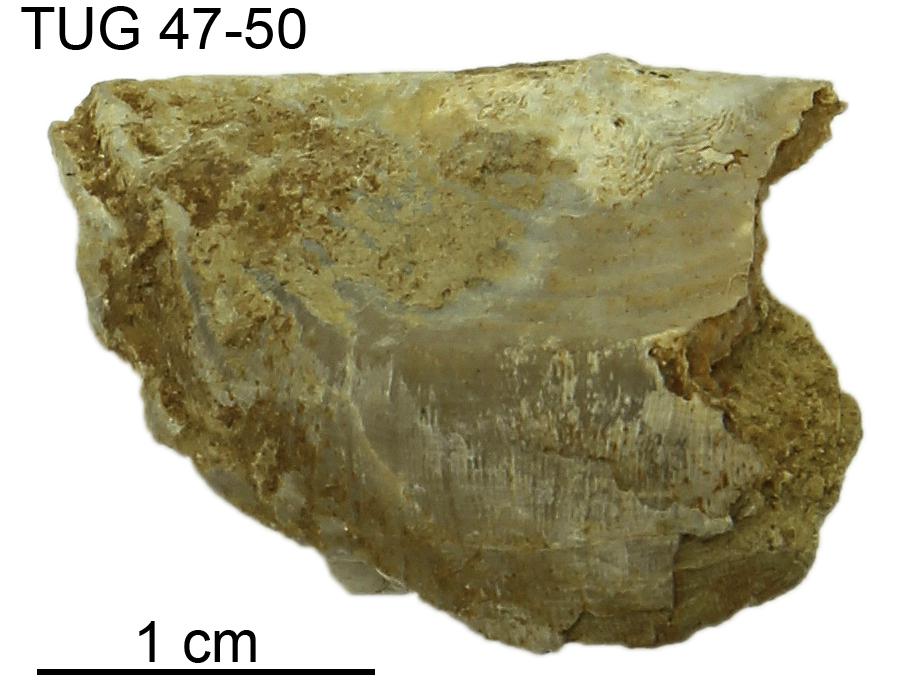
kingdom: Animalia
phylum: Brachiopoda
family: Leptaenidae
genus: Oandumena
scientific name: Oandumena
